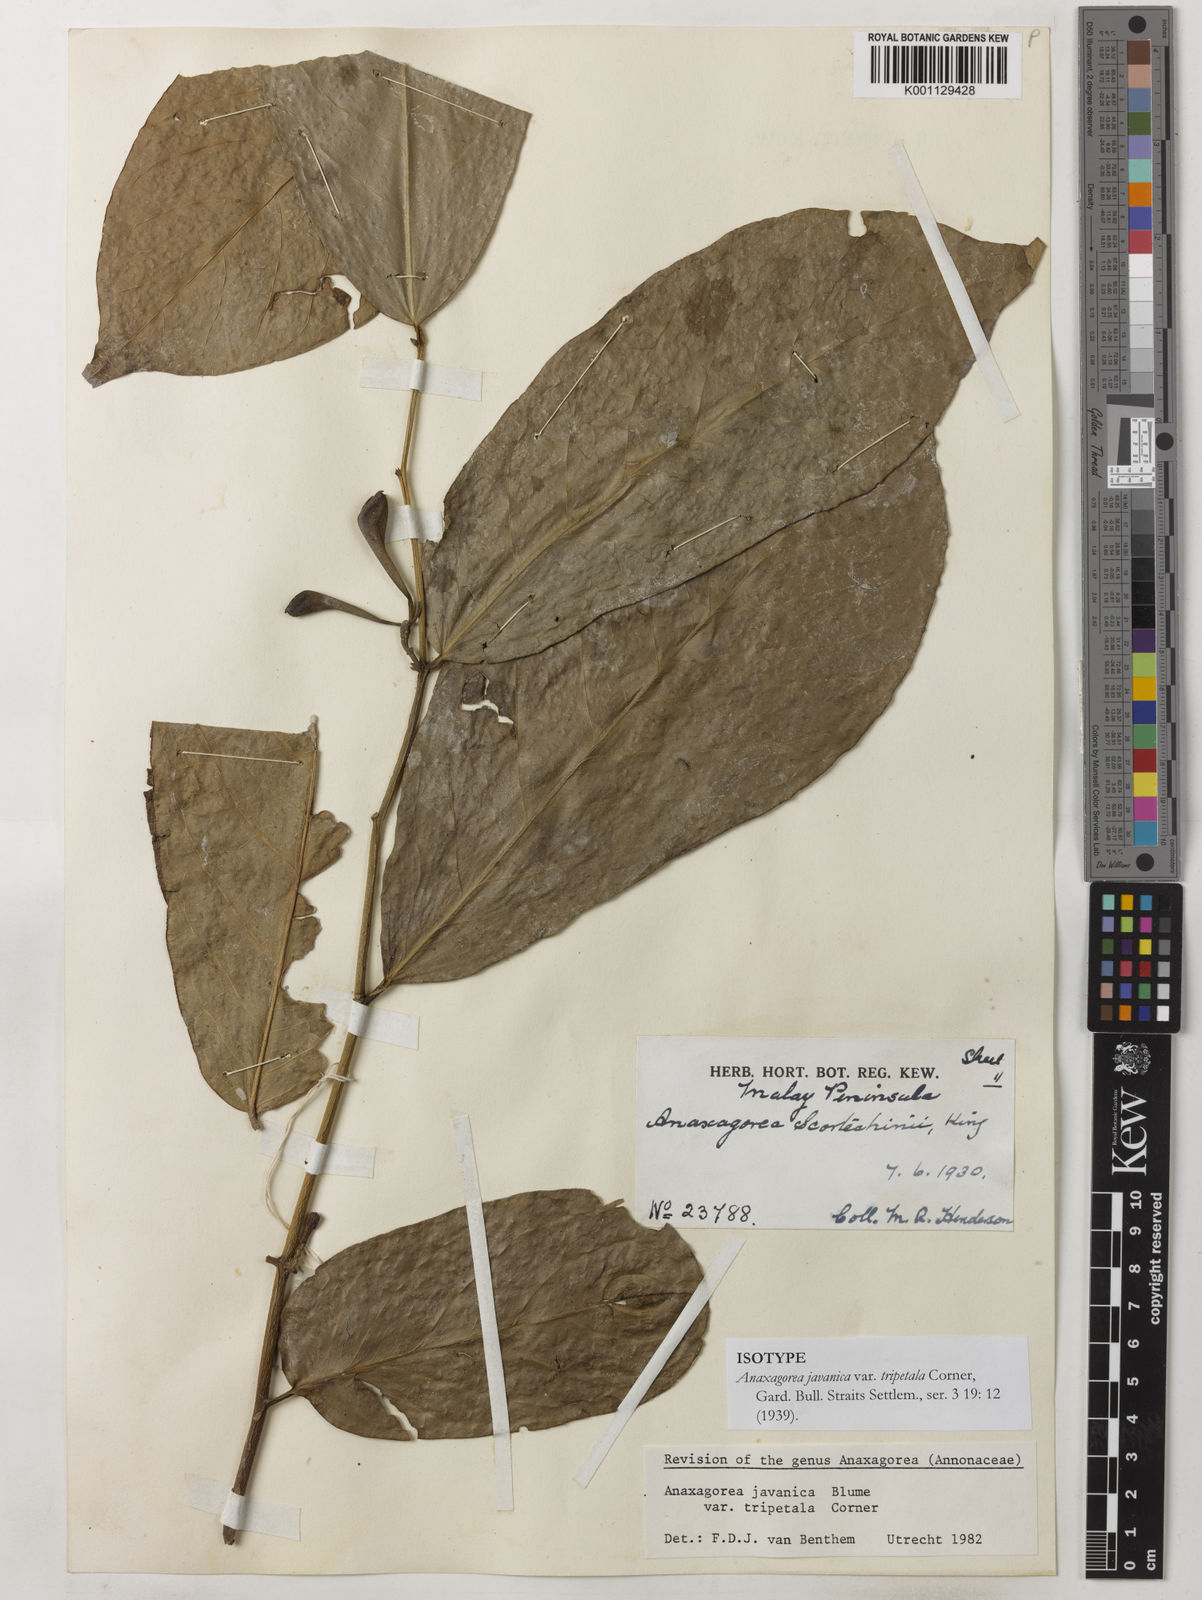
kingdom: Plantae
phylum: Tracheophyta
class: Magnoliopsida
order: Magnoliales
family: Annonaceae
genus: Anaxagorea
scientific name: Anaxagorea javanica
